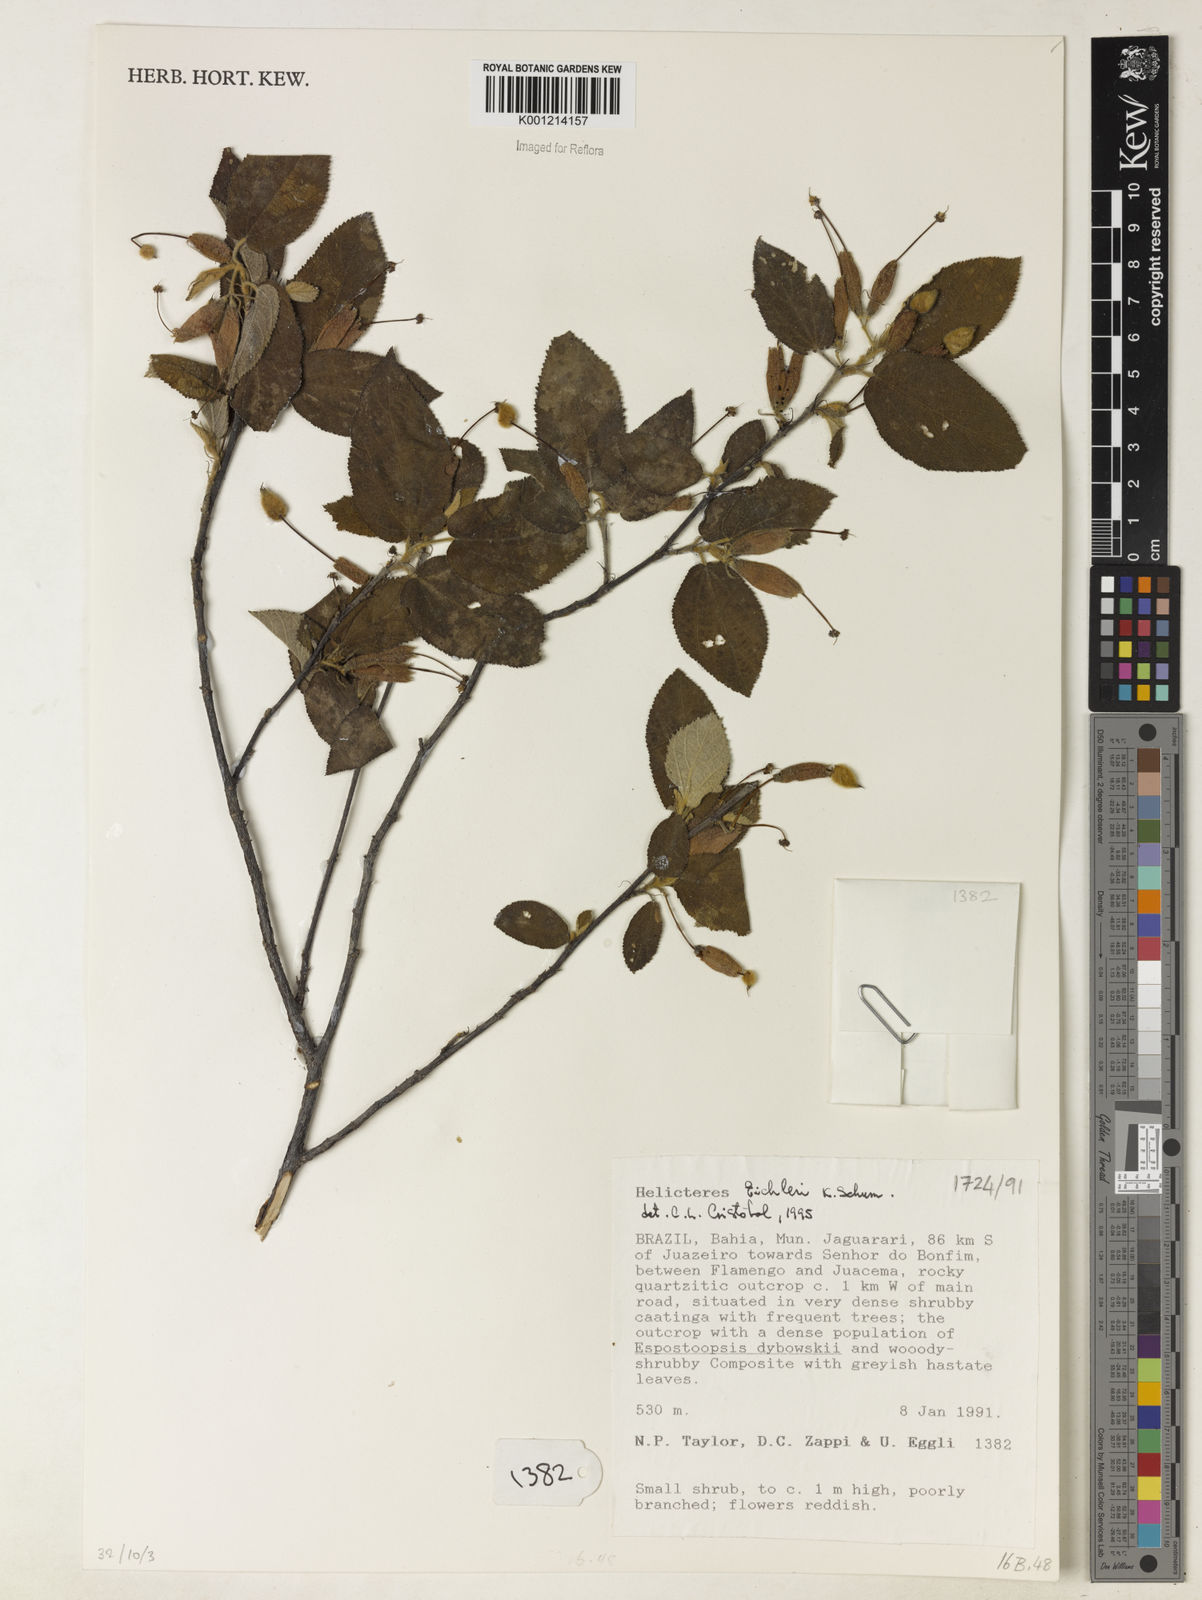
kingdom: Plantae
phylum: Tracheophyta
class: Magnoliopsida
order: Malvales
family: Malvaceae
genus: Helicteres
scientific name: Helicteres eichleri
